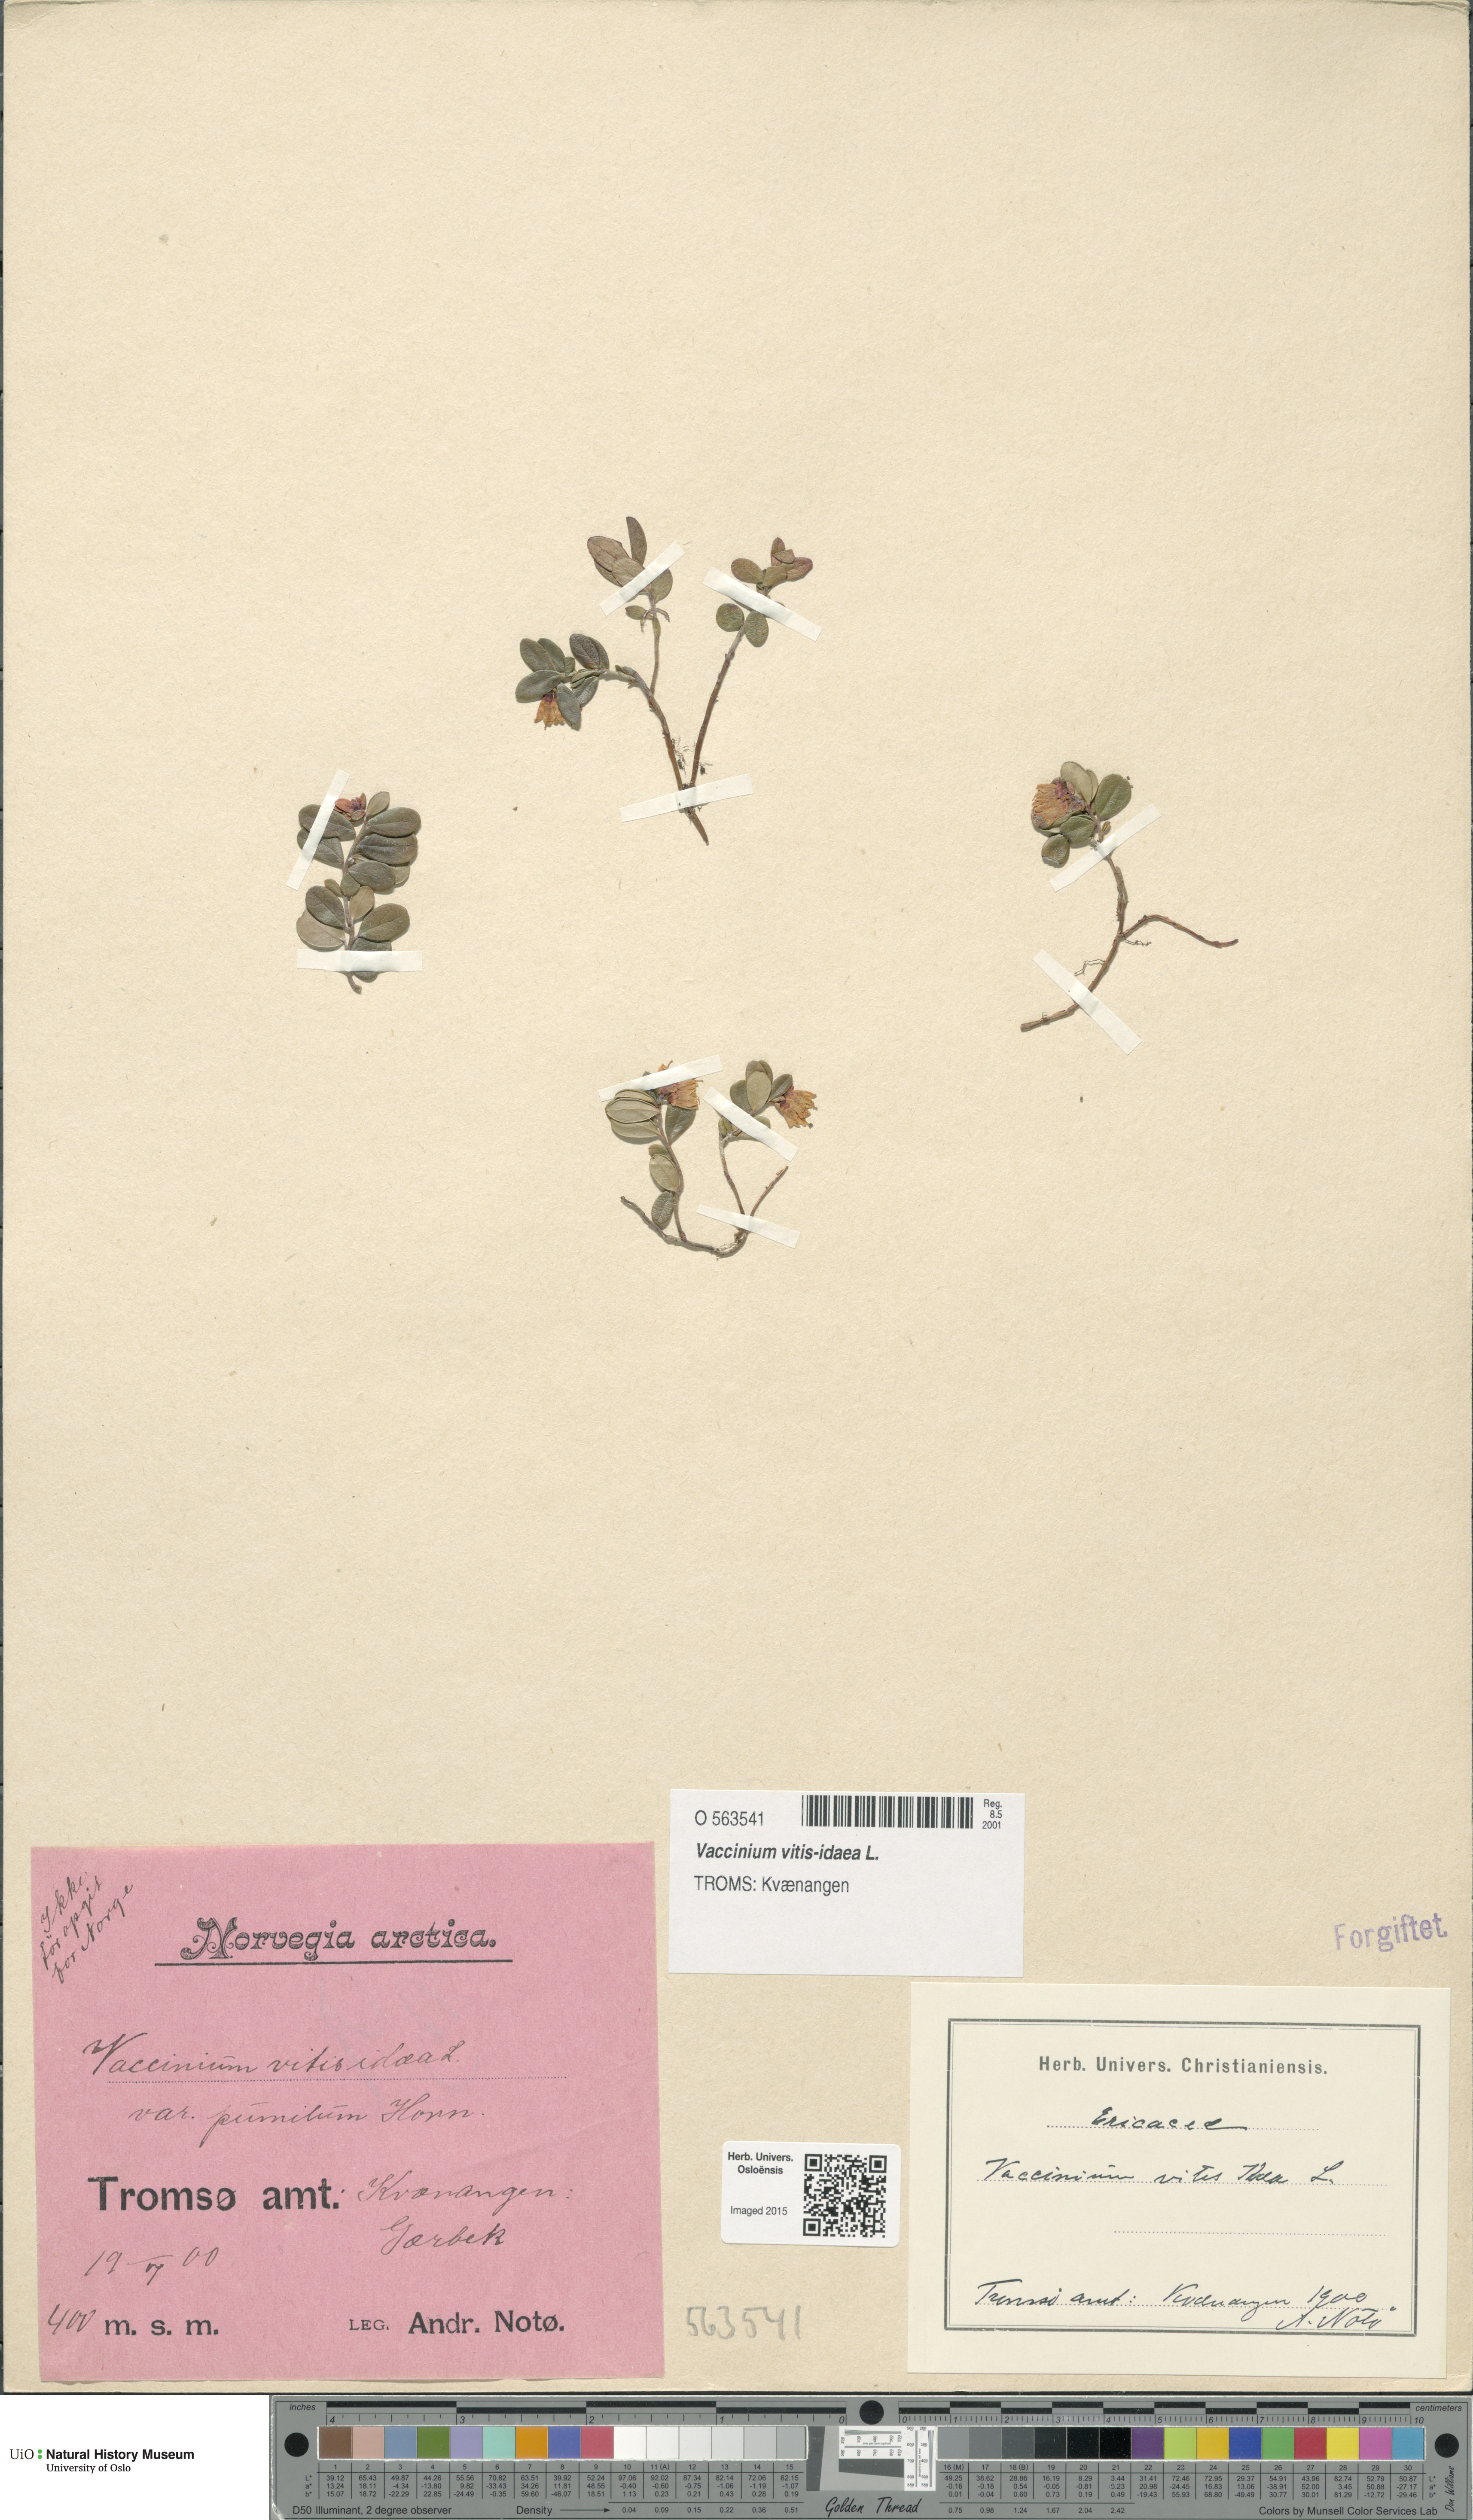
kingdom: Plantae
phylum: Tracheophyta
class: Magnoliopsida
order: Ericales
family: Ericaceae
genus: Vaccinium
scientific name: Vaccinium vitis-idaea
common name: Cowberry
